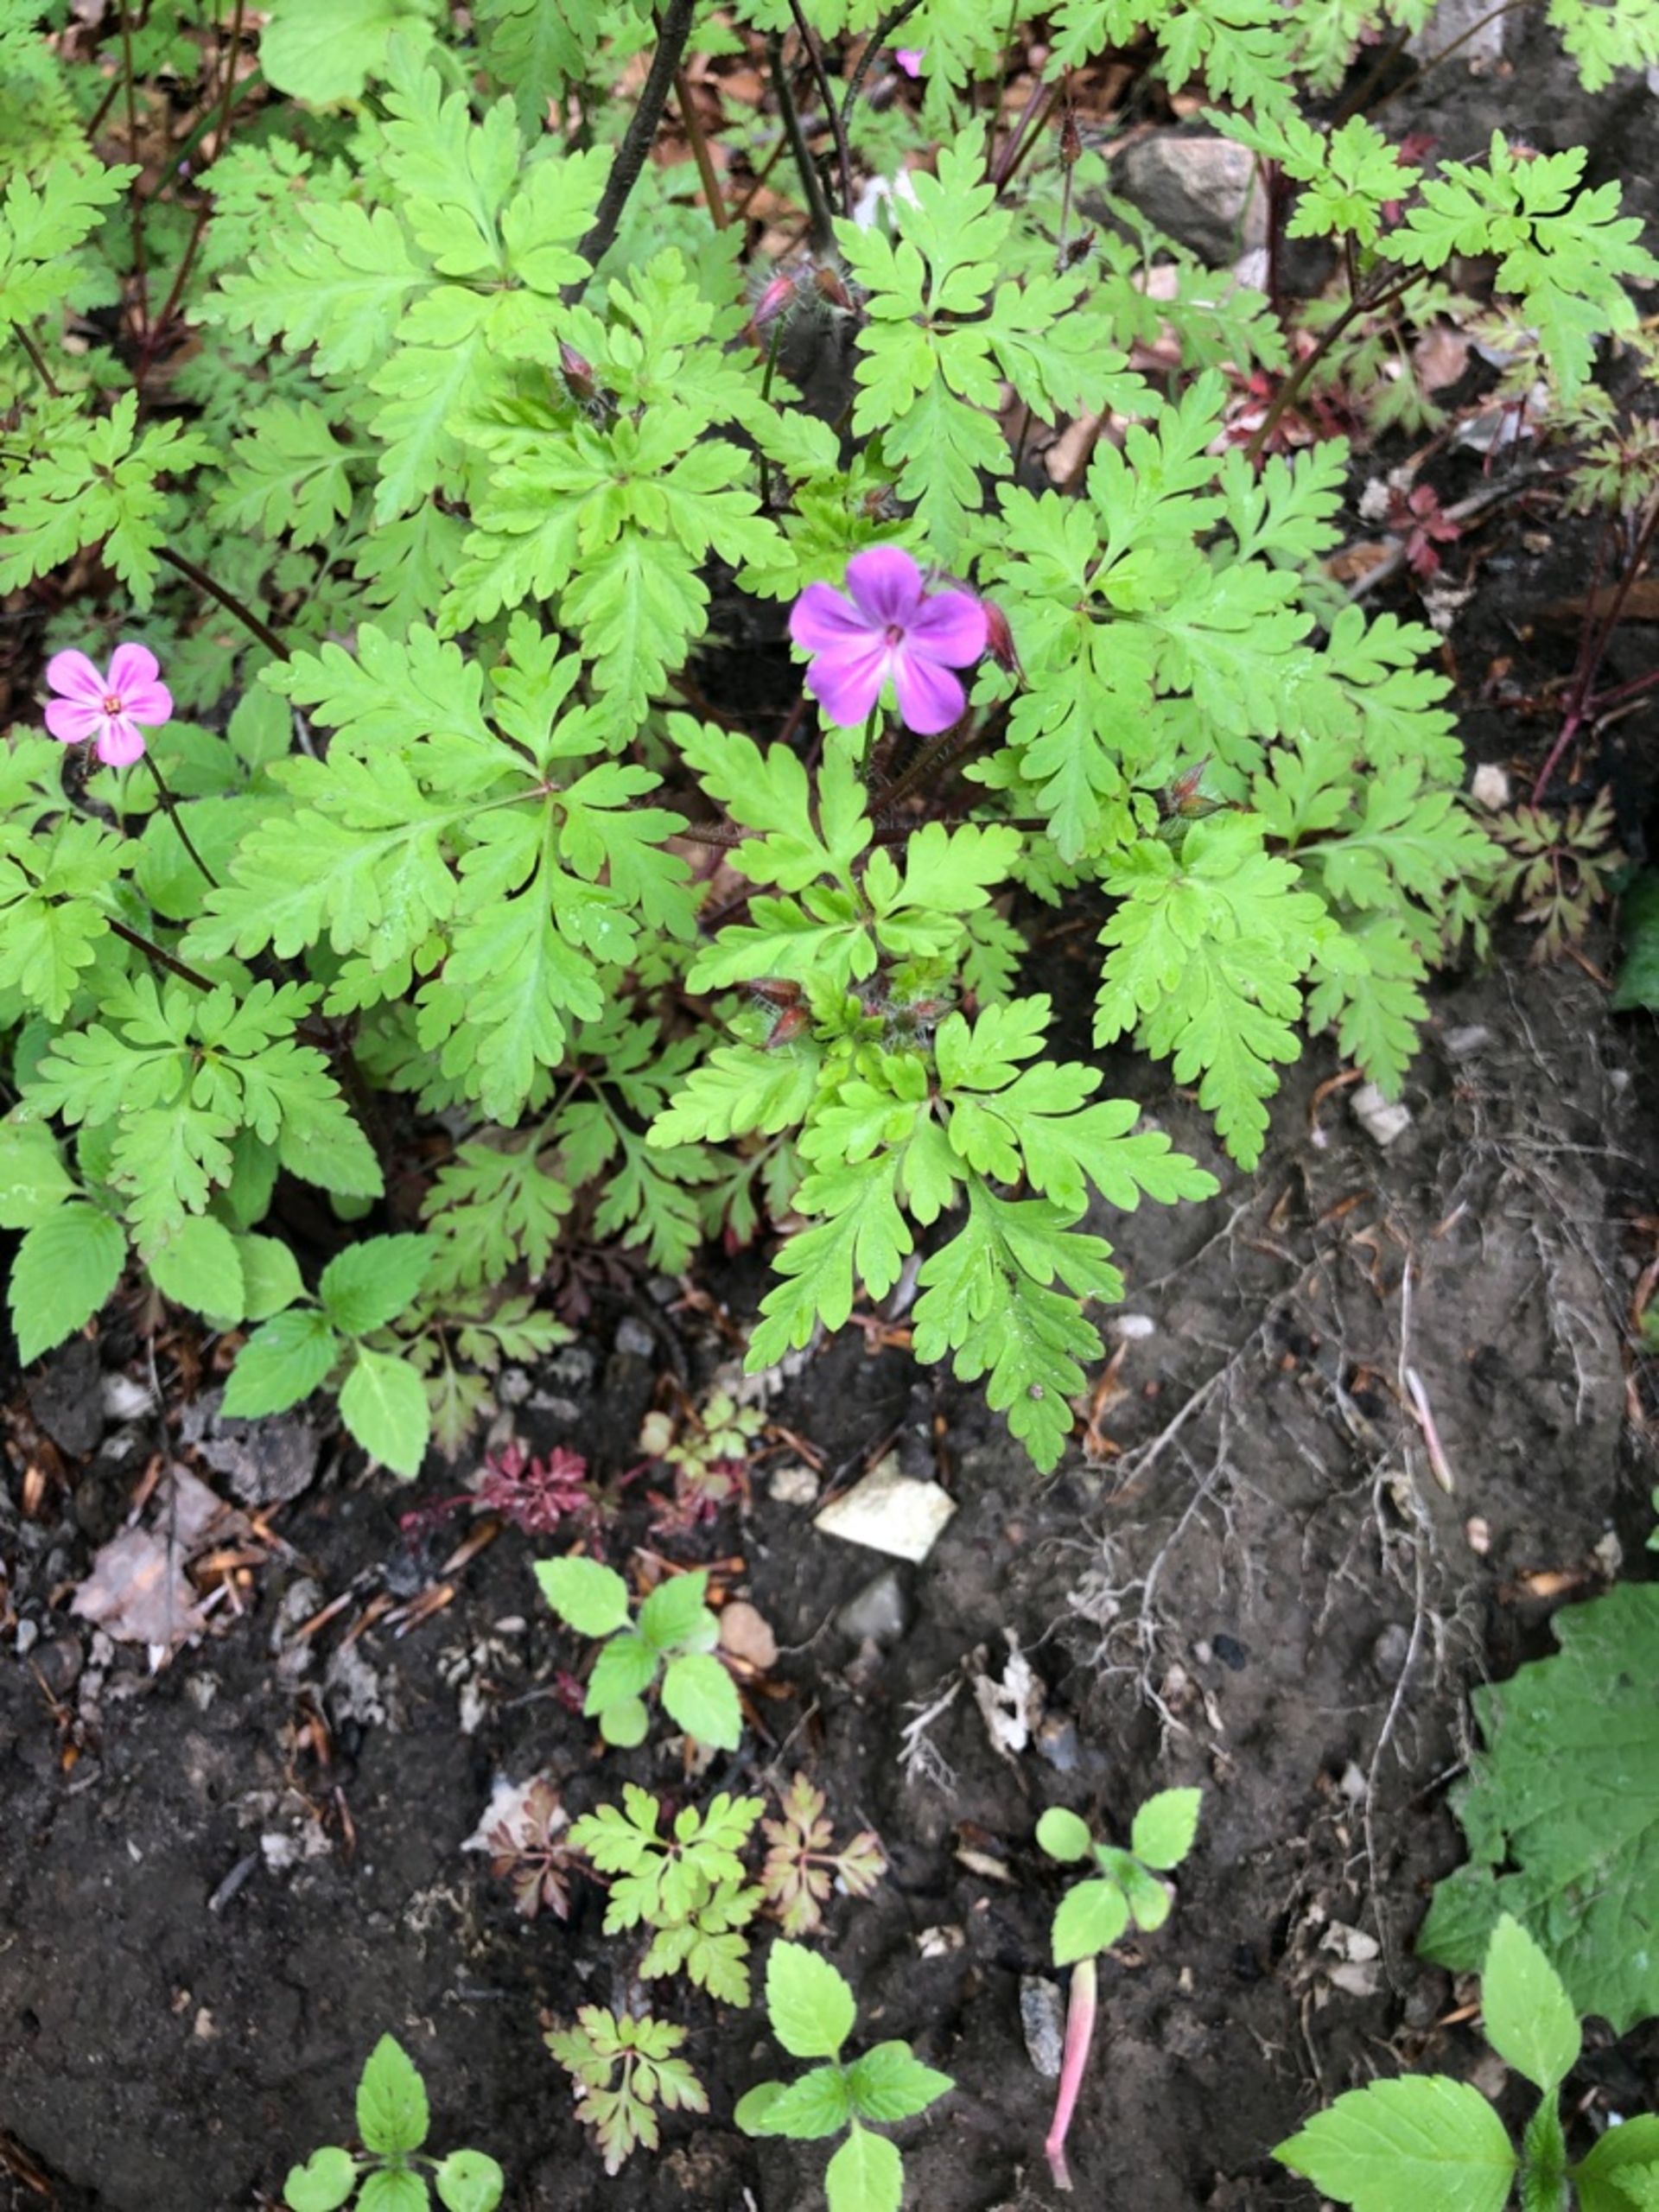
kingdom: Plantae
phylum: Tracheophyta
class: Magnoliopsida
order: Geraniales
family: Geraniaceae
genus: Geranium
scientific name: Geranium robertianum
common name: Stinkende storkenæb
